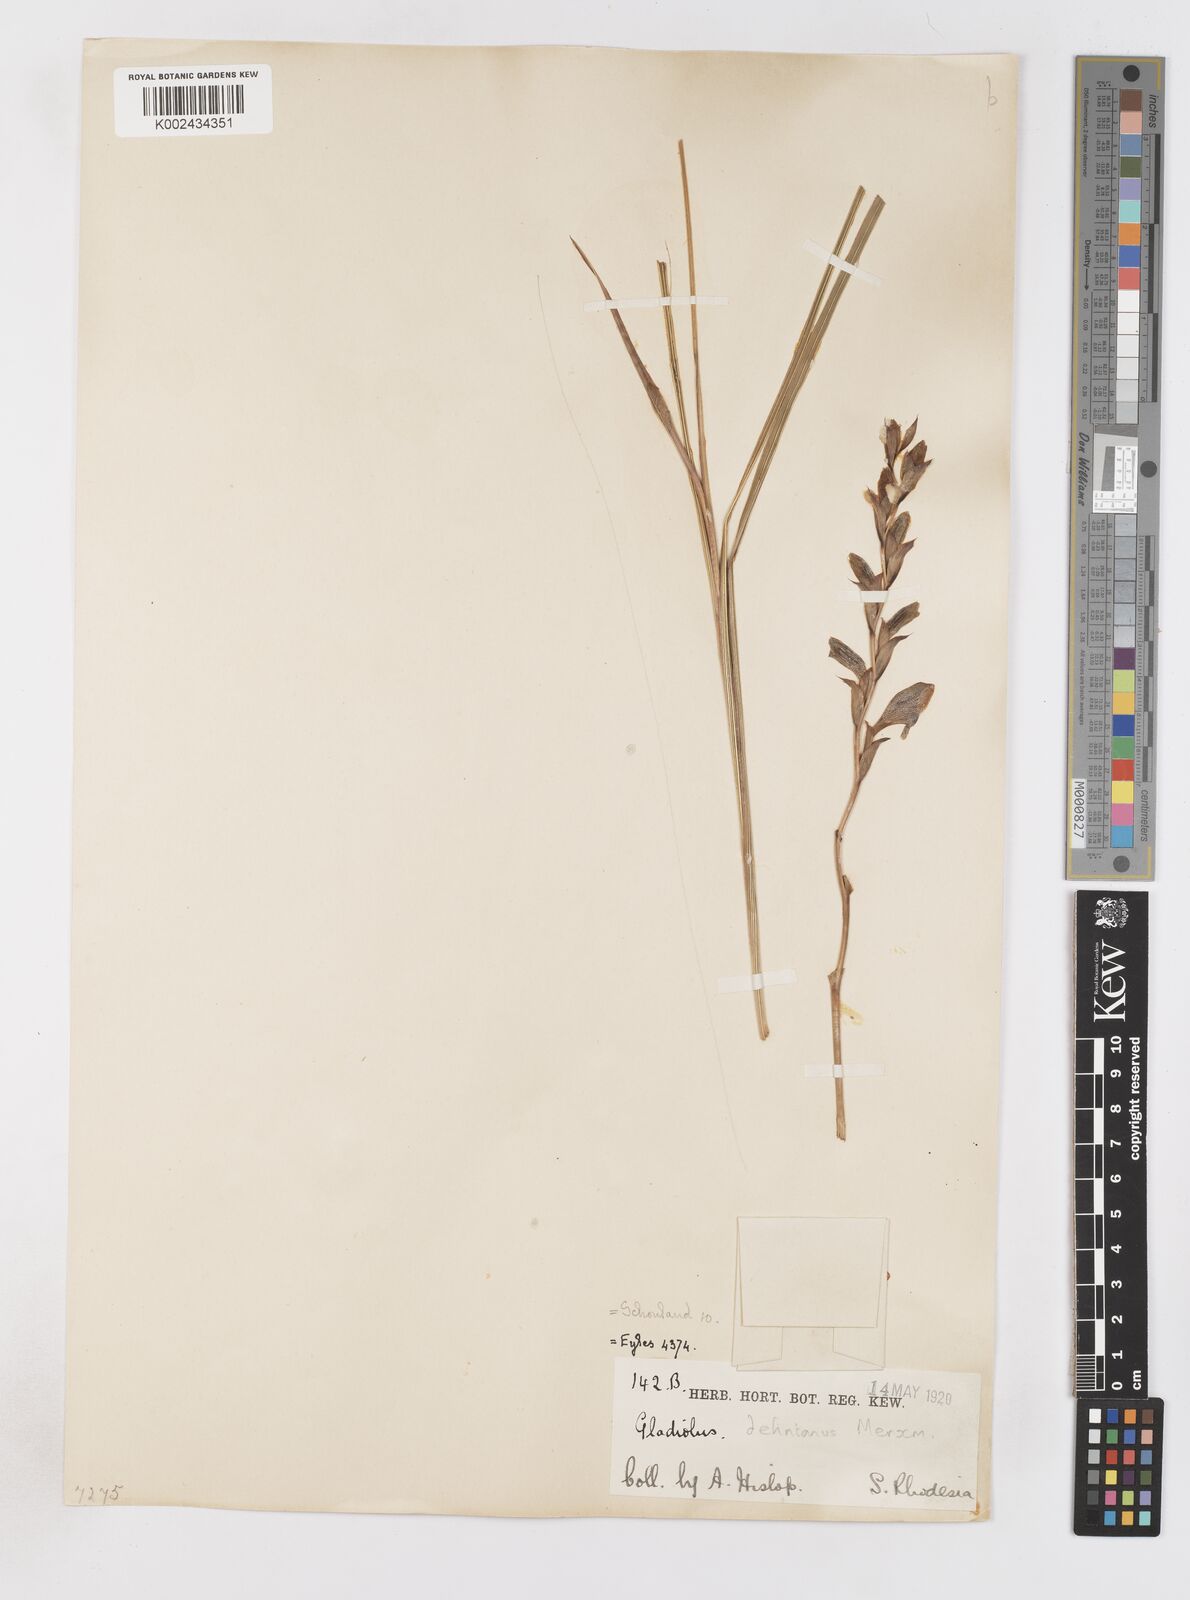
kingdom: Plantae
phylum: Tracheophyta
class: Liliopsida
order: Asparagales
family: Iridaceae
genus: Gladiolus
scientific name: Gladiolus sericeovillosus
